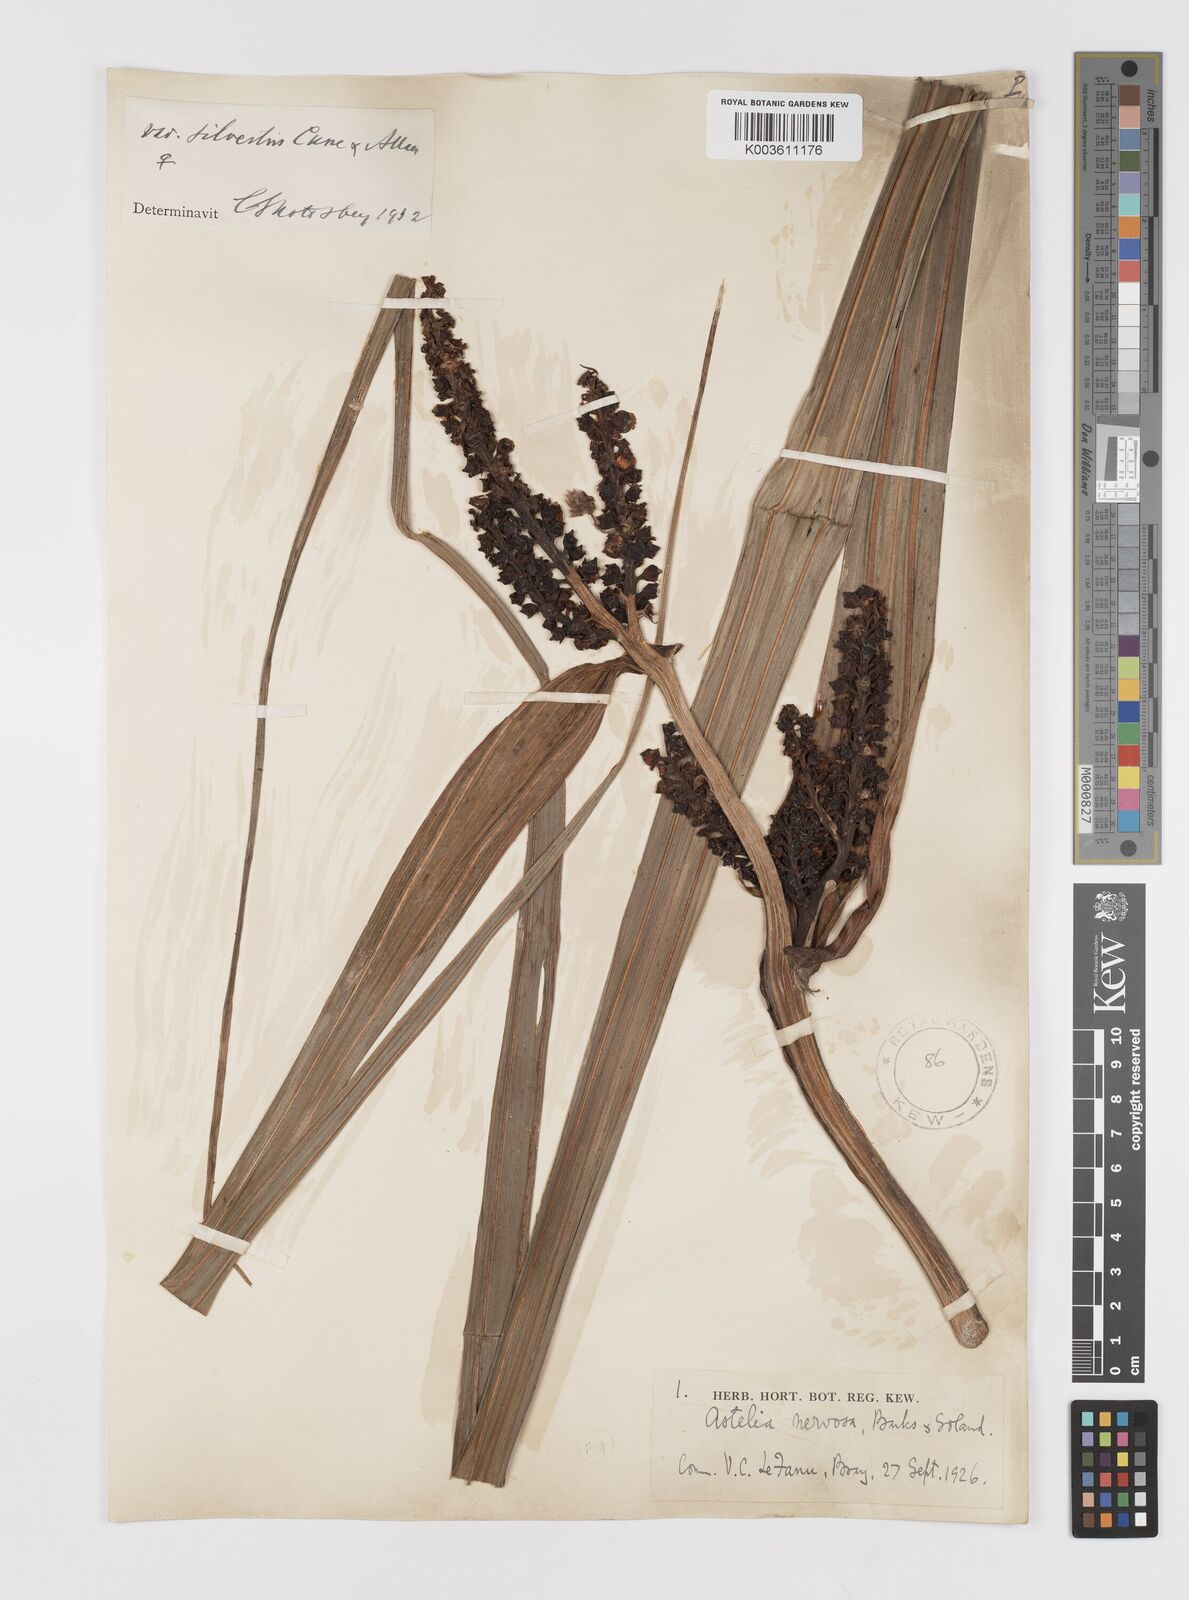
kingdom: Plantae
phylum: Tracheophyta
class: Liliopsida
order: Asparagales
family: Asteliaceae
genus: Astelia
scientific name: Astelia nervosa
